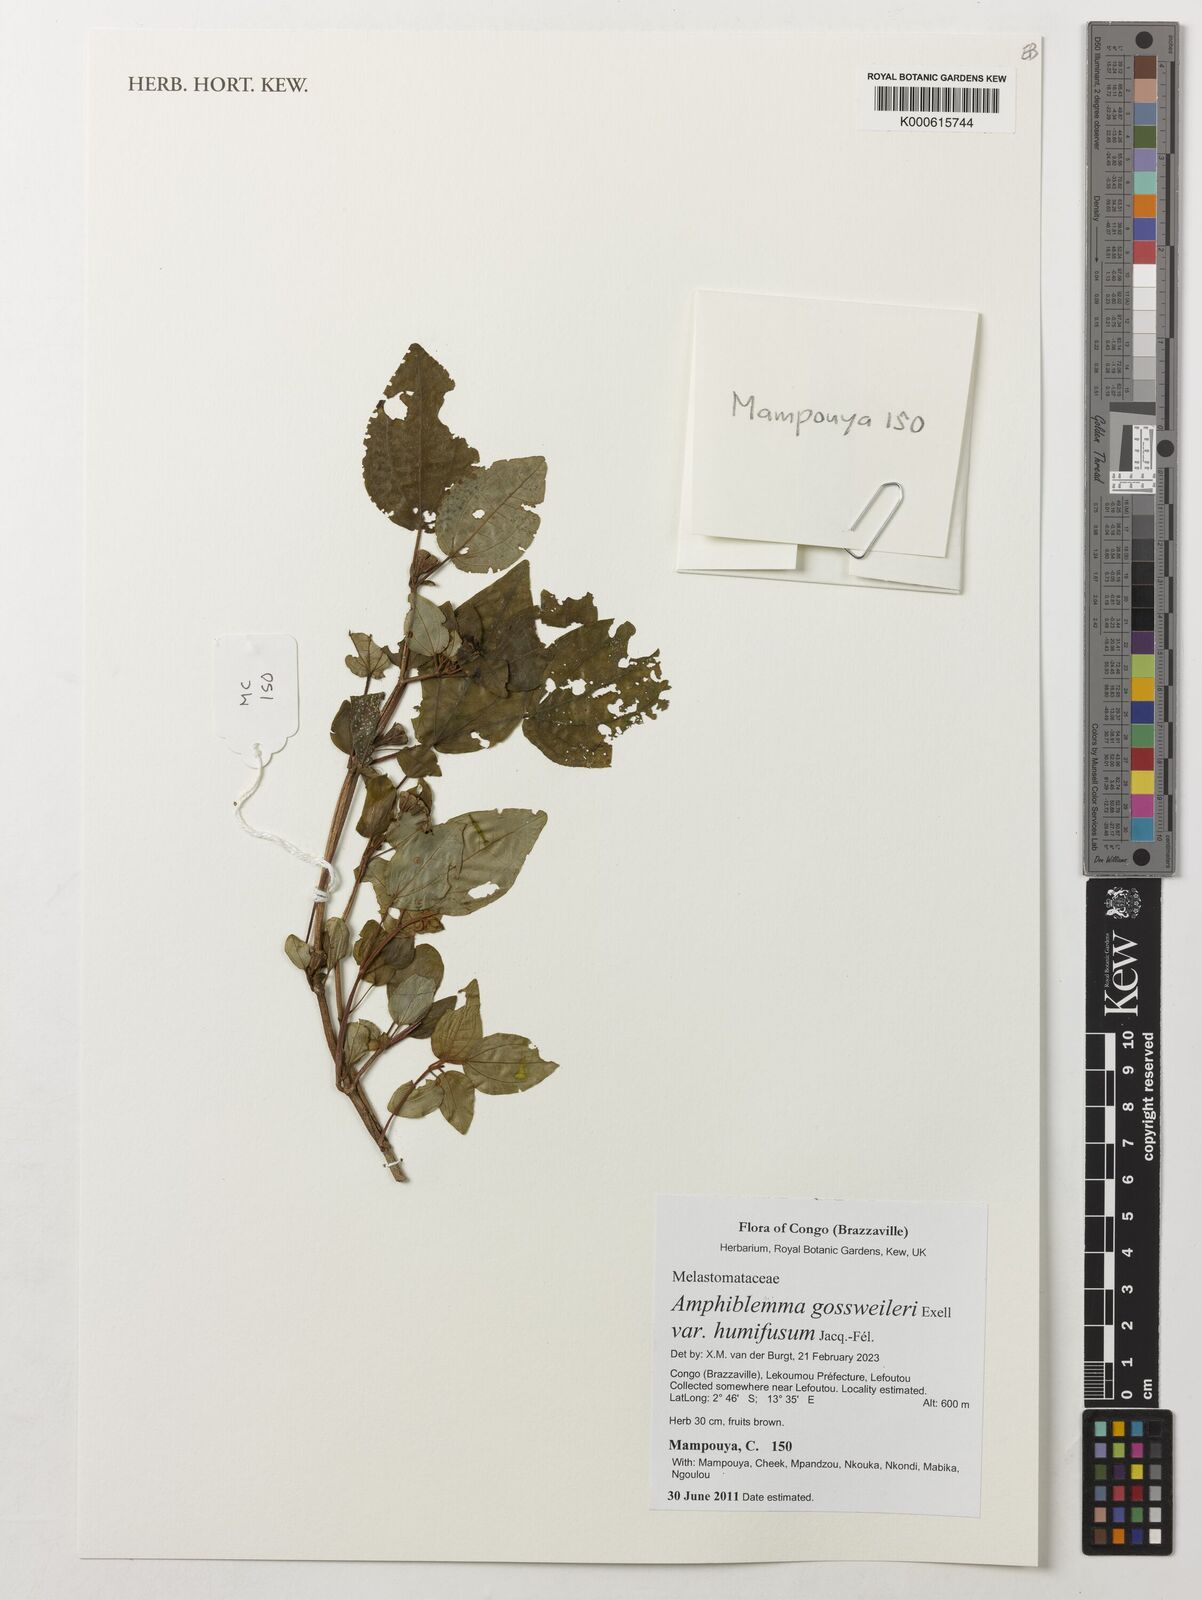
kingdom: Plantae
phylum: Tracheophyta
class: Magnoliopsida
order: Myrtales
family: Melastomataceae
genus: Amphiblemma
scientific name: Amphiblemma gossweileri
